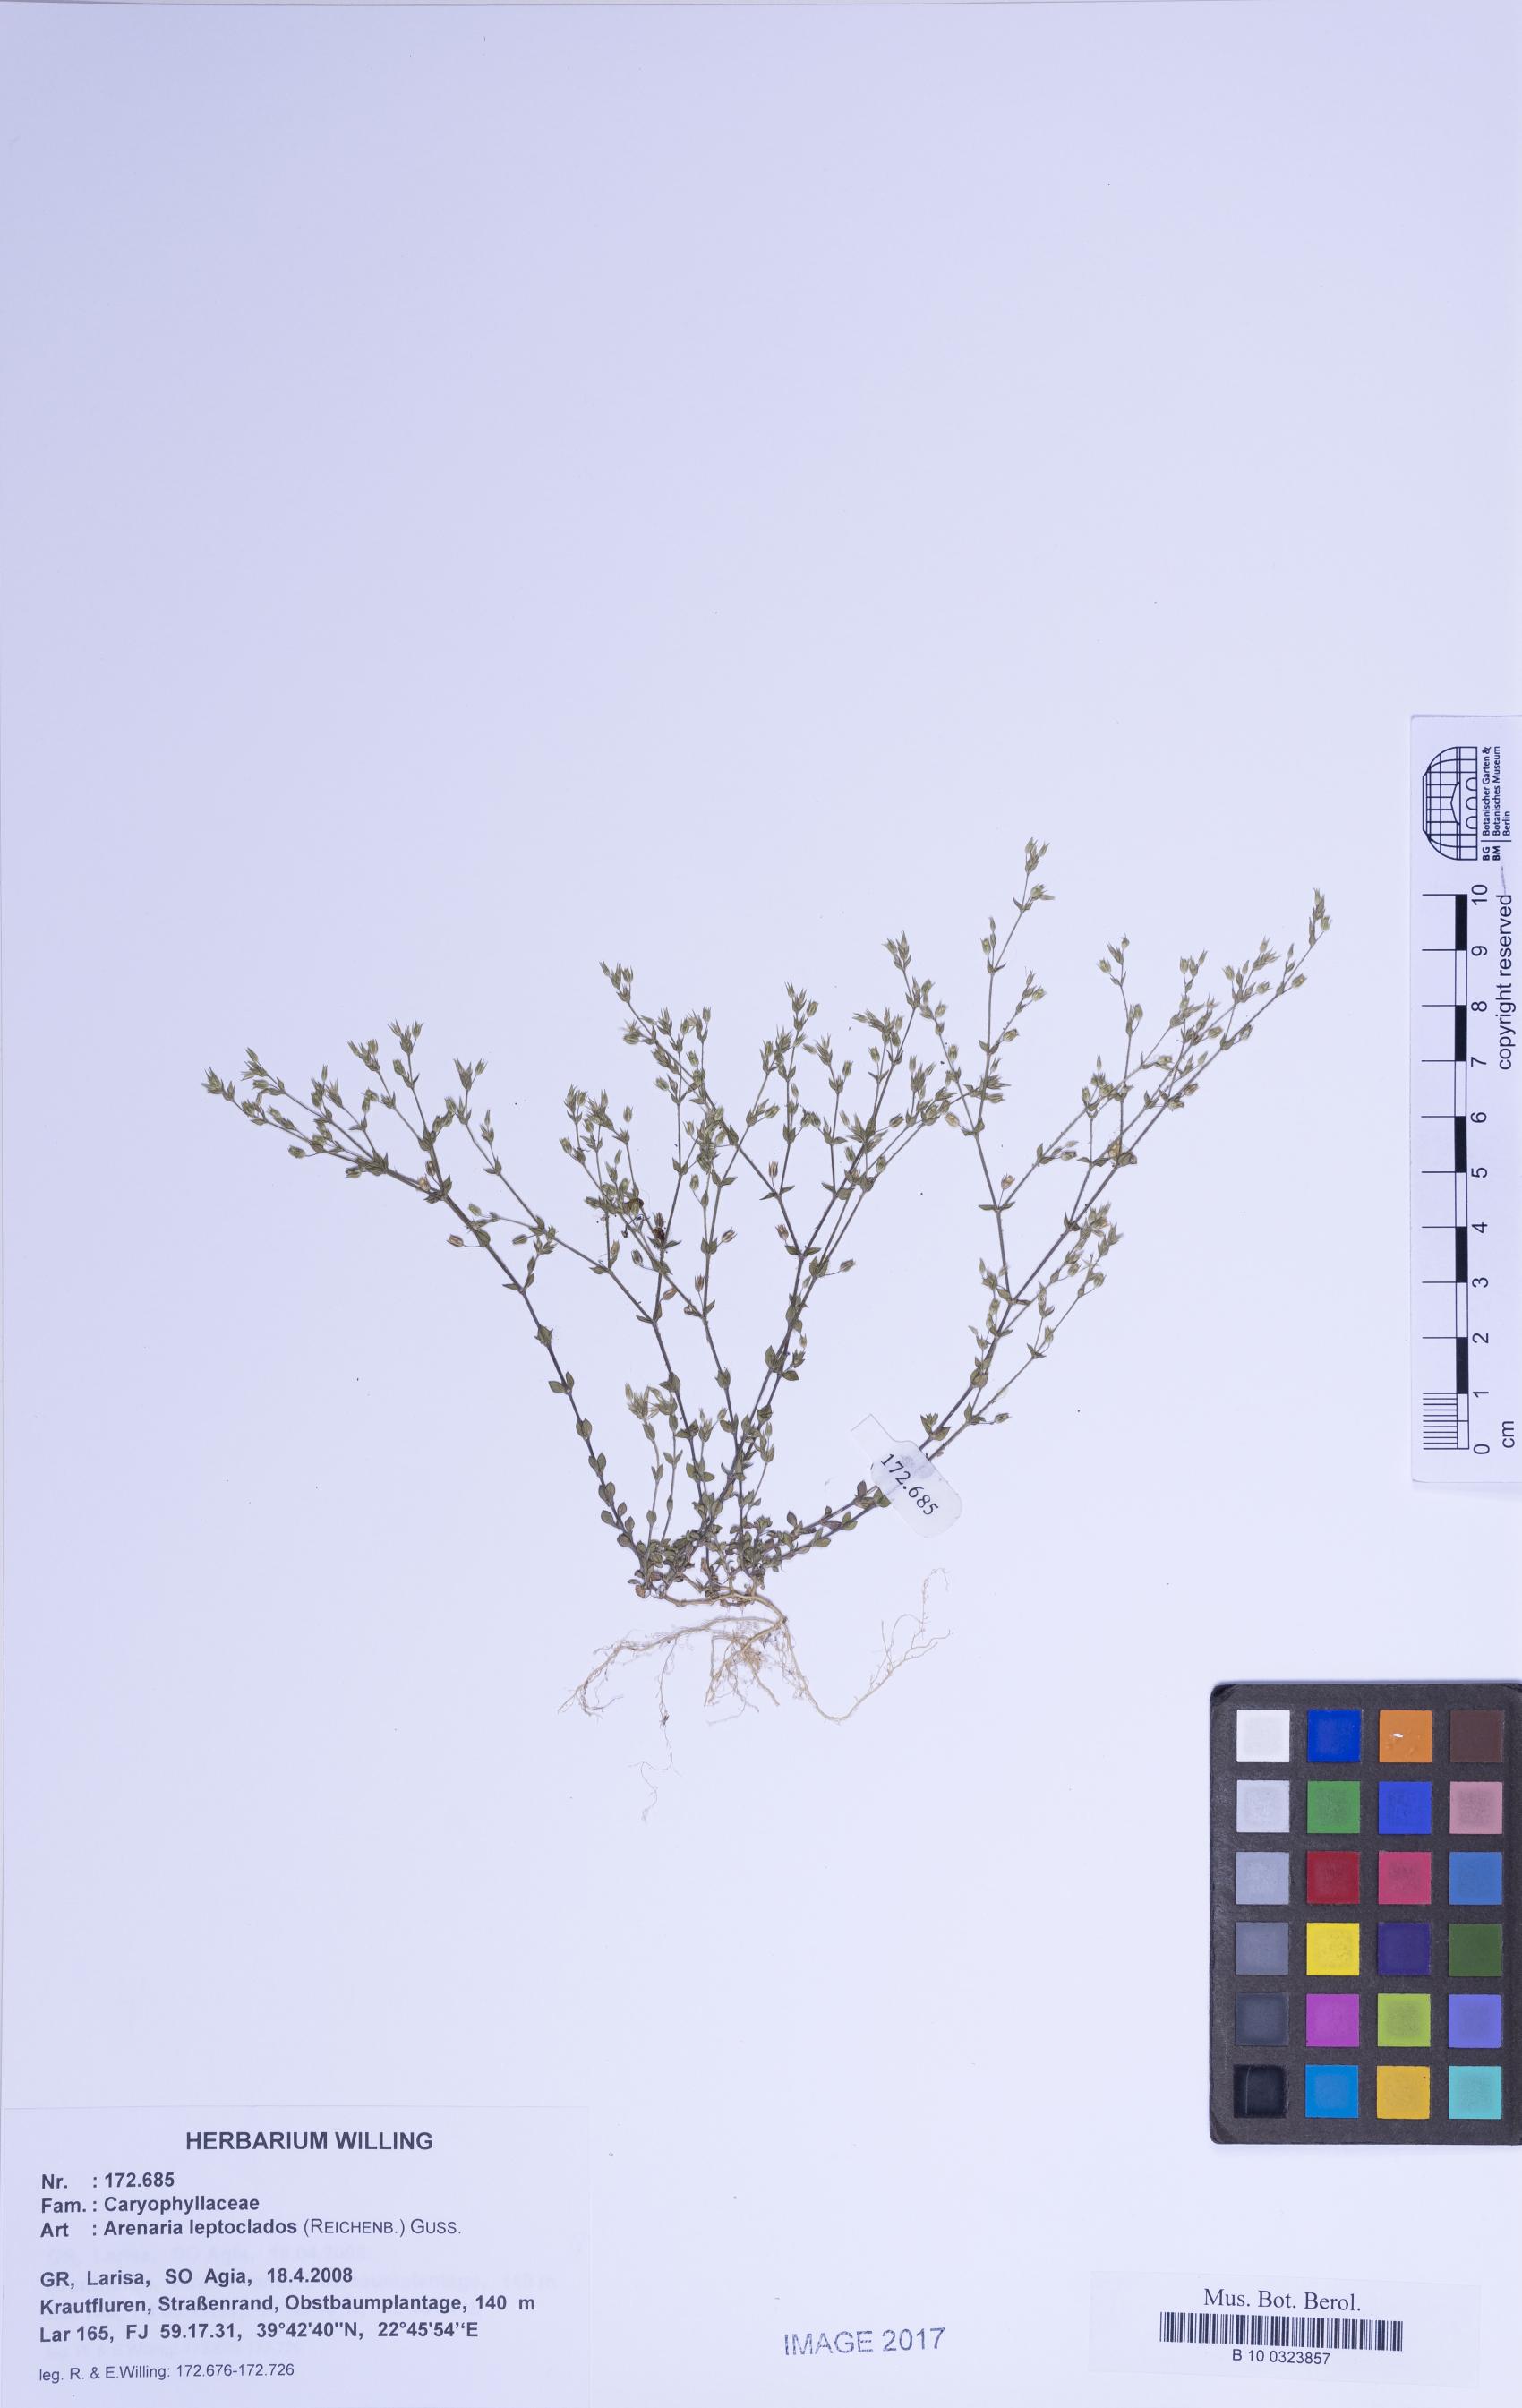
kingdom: Plantae
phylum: Tracheophyta
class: Magnoliopsida
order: Caryophyllales
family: Caryophyllaceae
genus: Arenaria
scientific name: Arenaria leptoclados
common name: Thyme-leaved sandwort
